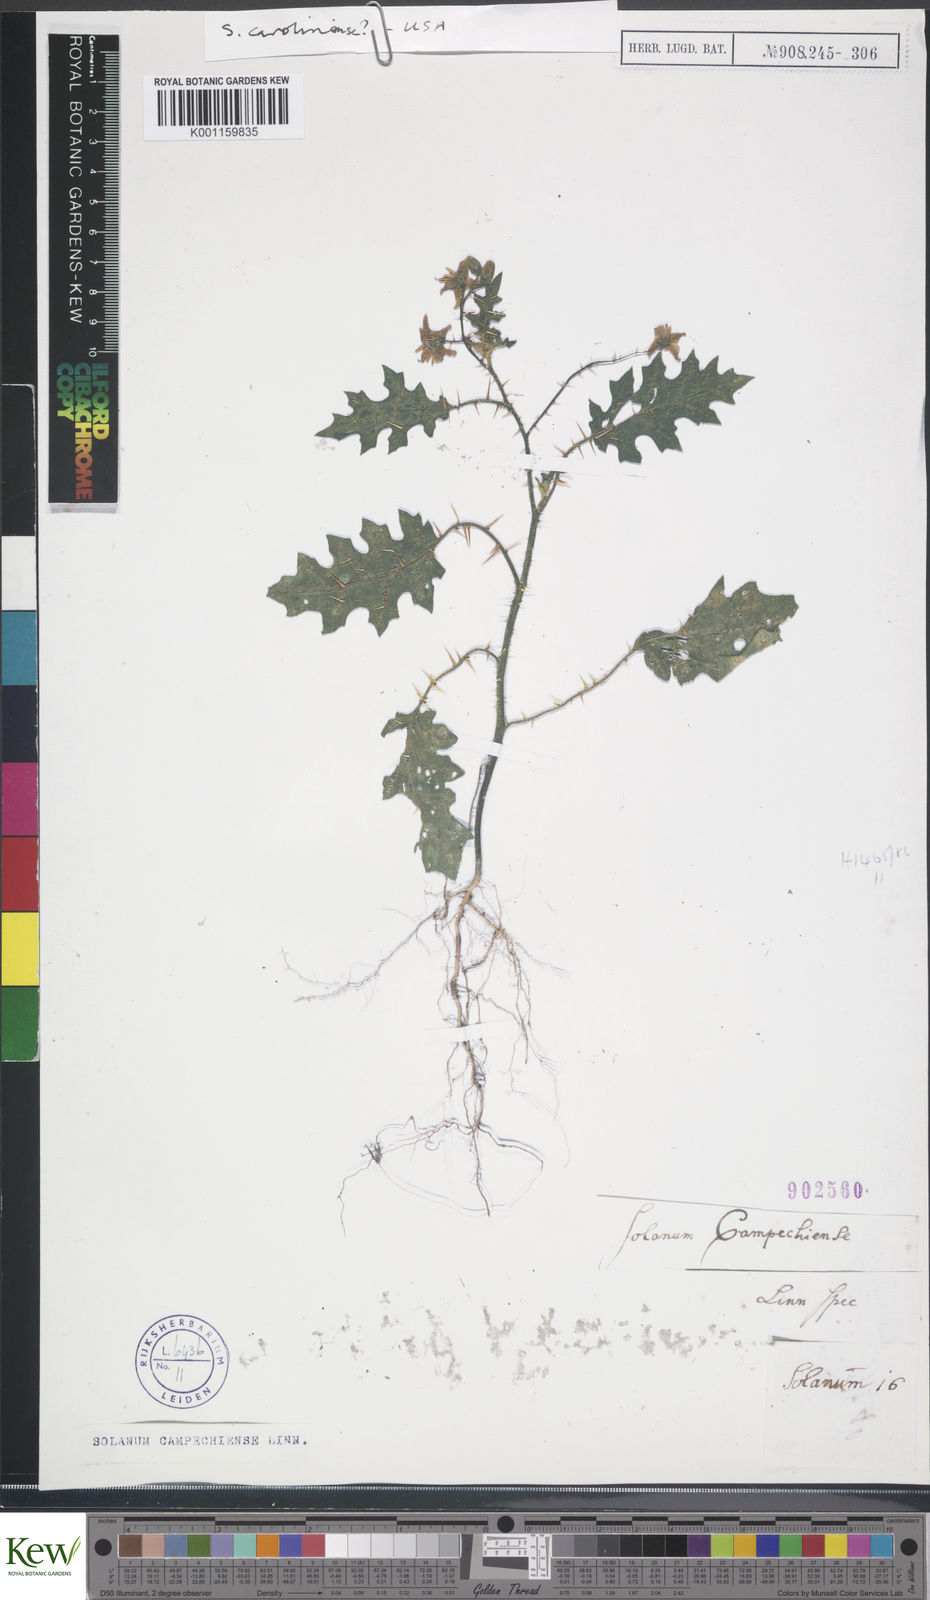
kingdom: Plantae
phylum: Tracheophyta
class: Magnoliopsida
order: Solanales
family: Solanaceae
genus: Solanum
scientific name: Solanum carolinense
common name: Horse-nettle
